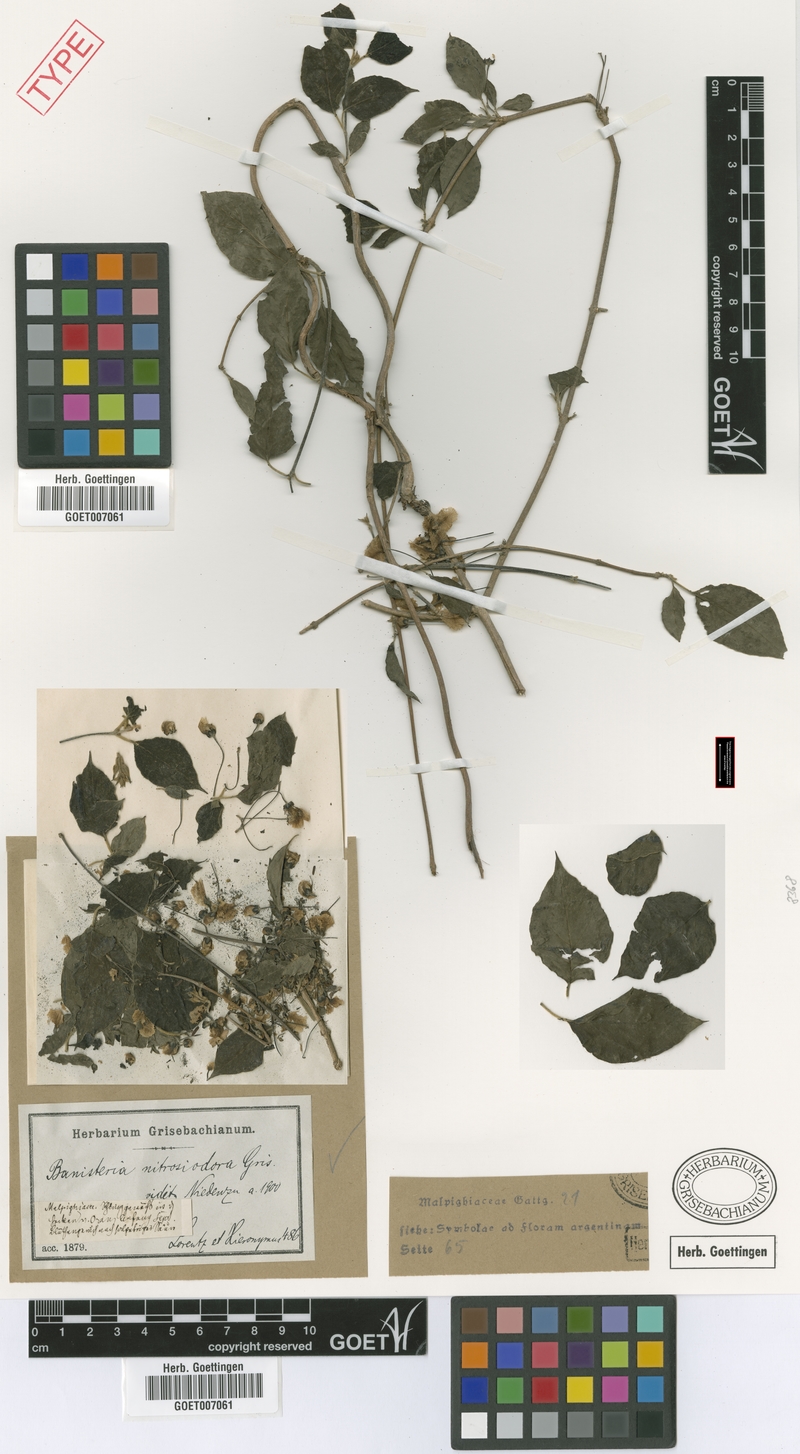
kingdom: Plantae
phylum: Tracheophyta
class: Magnoliopsida
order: Malpighiales
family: Malpighiaceae
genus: Diplopterys
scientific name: Diplopterys lutea
